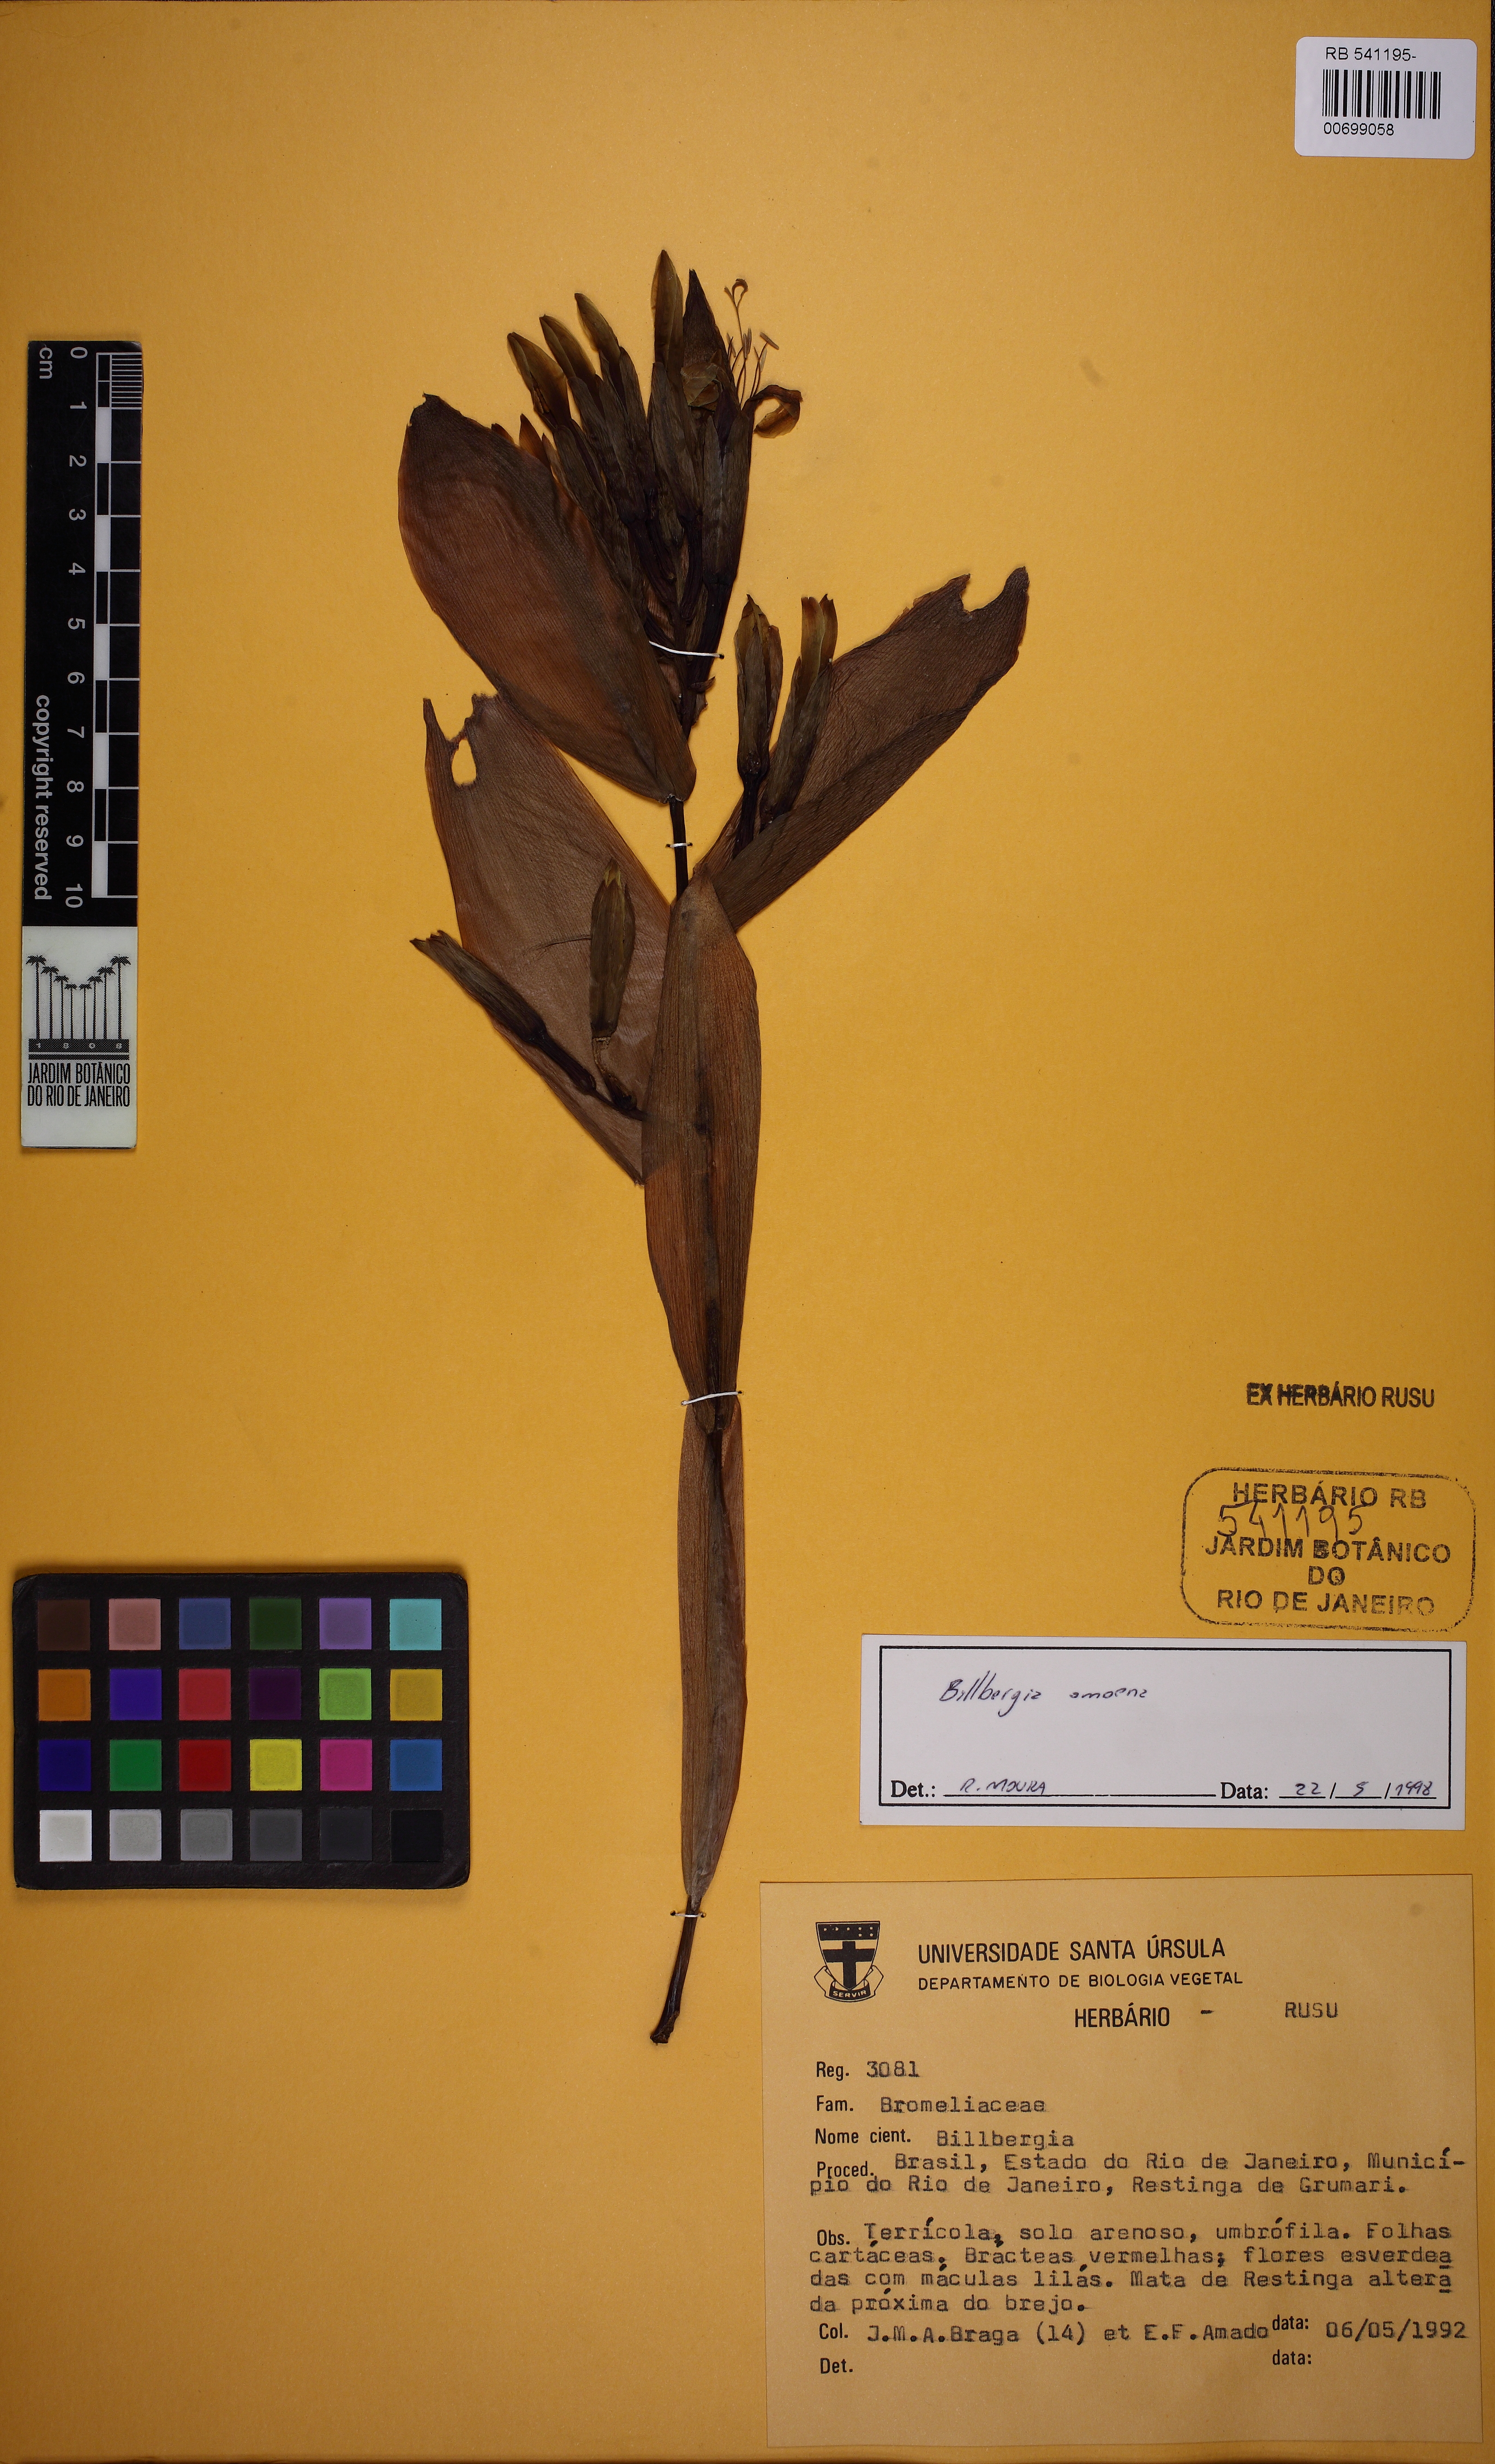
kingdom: Plantae
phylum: Tracheophyta
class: Liliopsida
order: Poales
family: Bromeliaceae
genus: Billbergia
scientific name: Billbergia amoena
